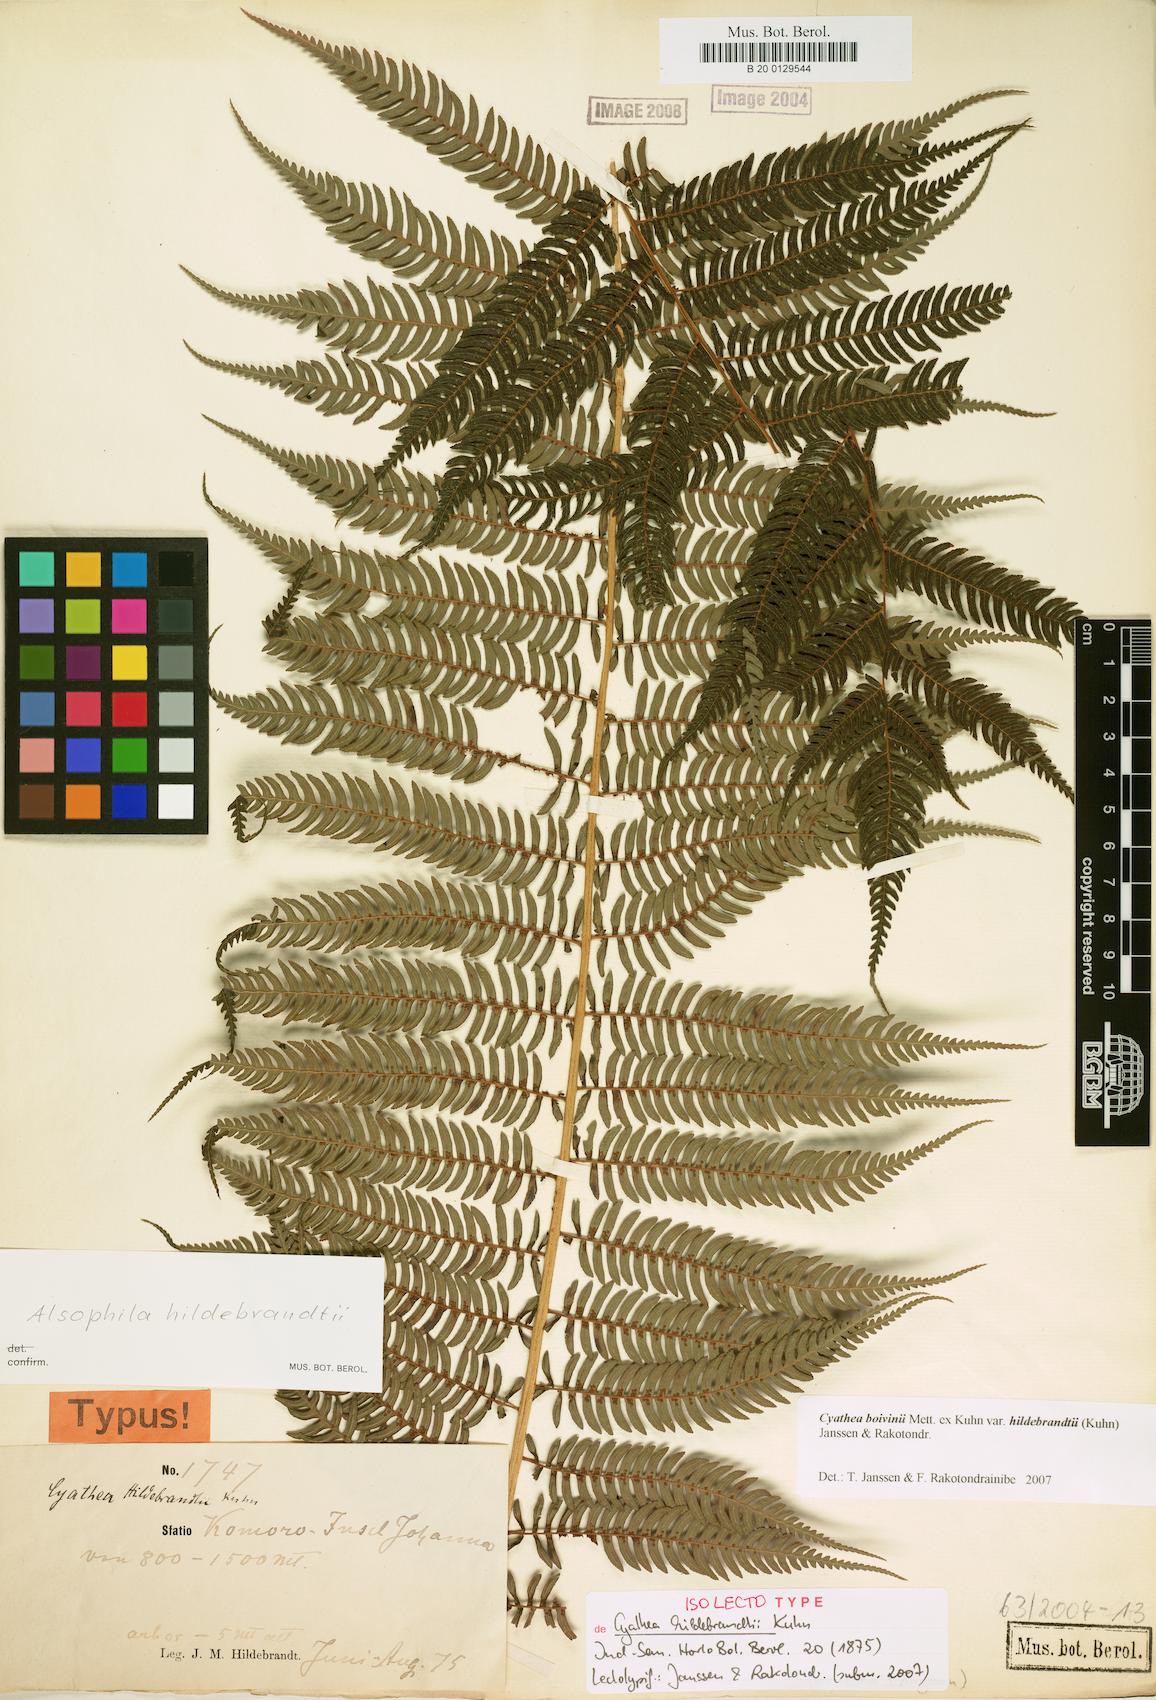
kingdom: Plantae
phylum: Tracheophyta
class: Polypodiopsida
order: Cyatheales
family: Cyatheaceae
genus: Gymnosphaera
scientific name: Gymnosphaera boivinii
